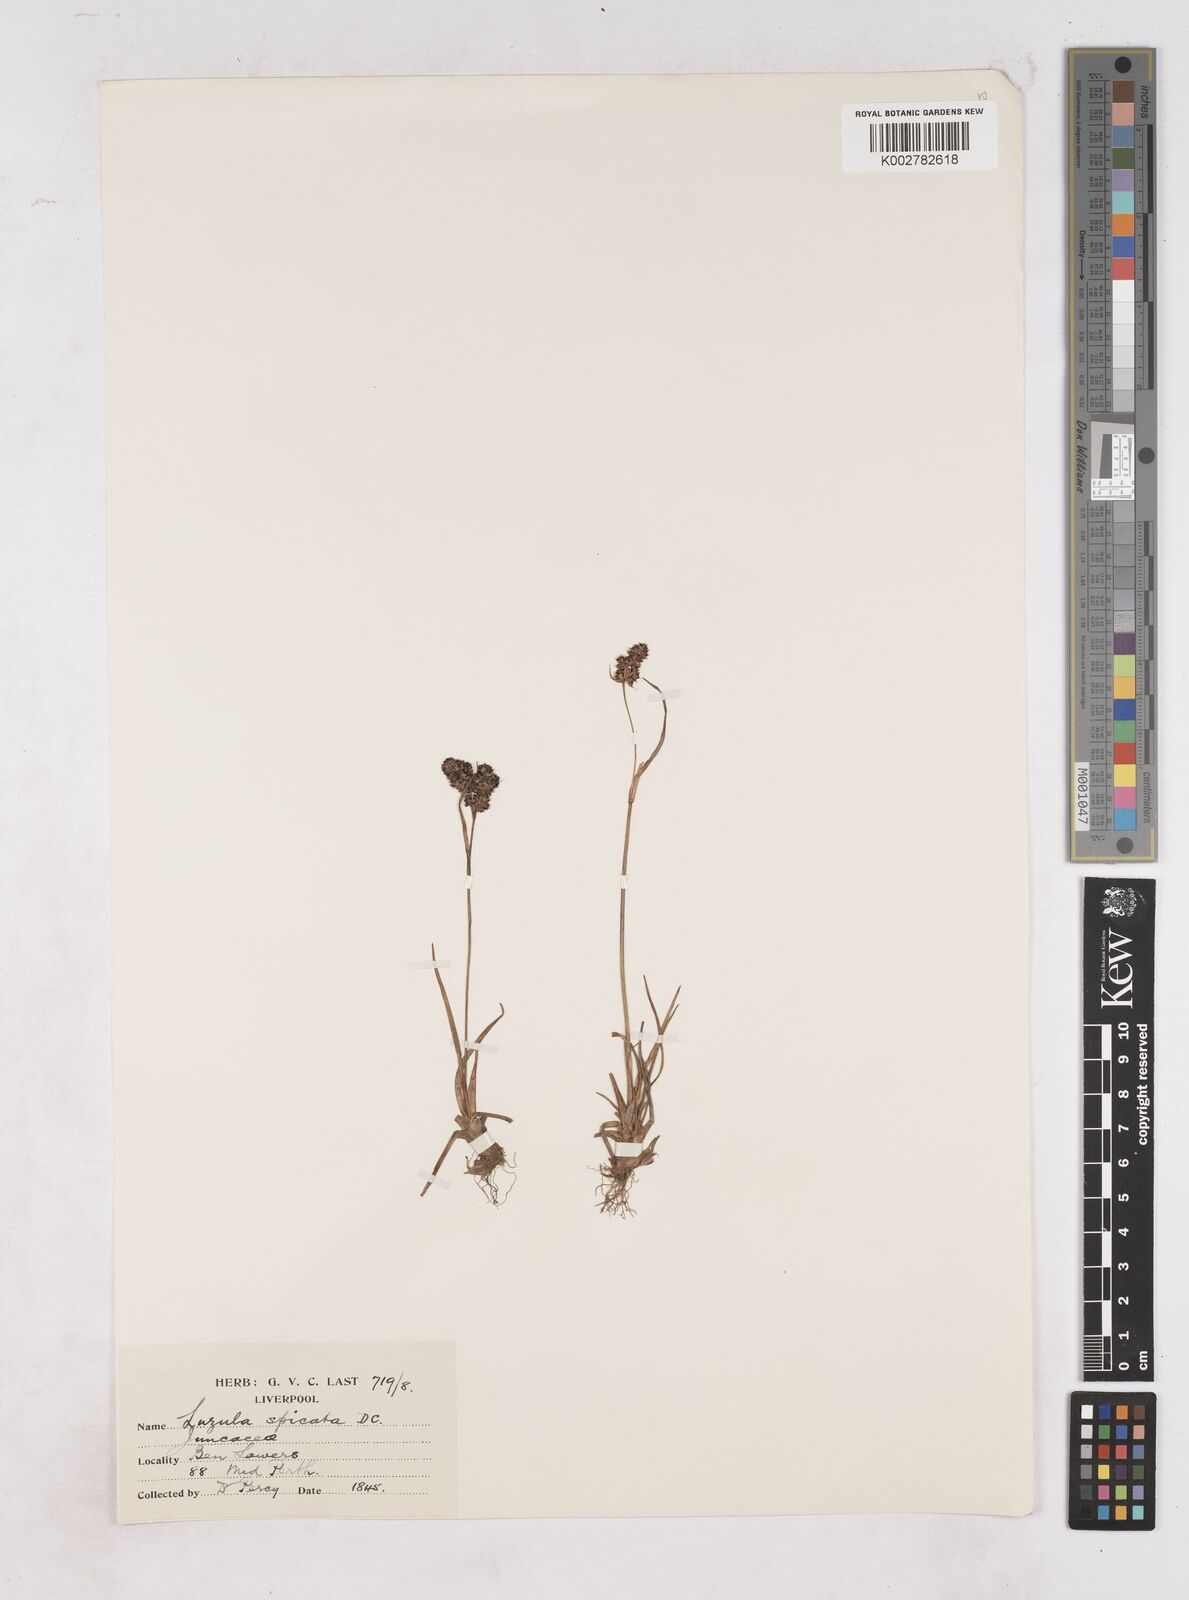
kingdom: Plantae
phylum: Tracheophyta
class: Liliopsida
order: Poales
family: Juncaceae
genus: Luzula
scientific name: Luzula spicata
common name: Spiked wood-rush
